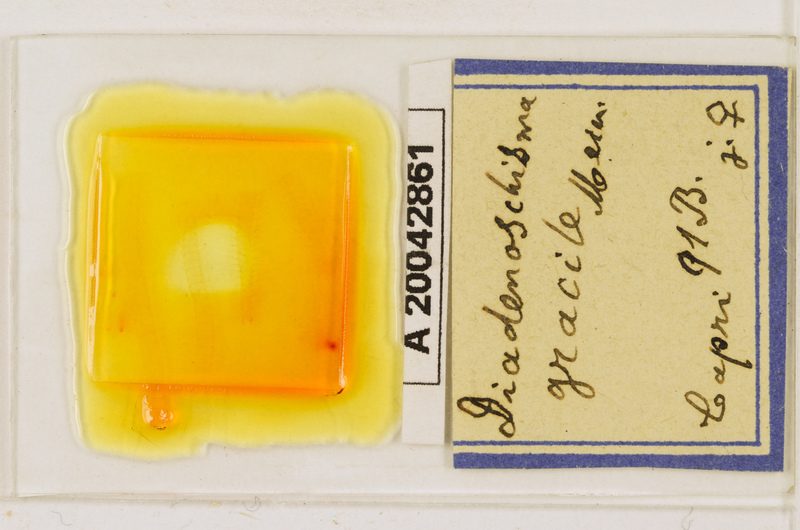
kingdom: Animalia
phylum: Arthropoda
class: Chilopoda
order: Geophilomorpha
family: Himantariidae
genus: Stigmatogaster
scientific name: Stigmatogaster
